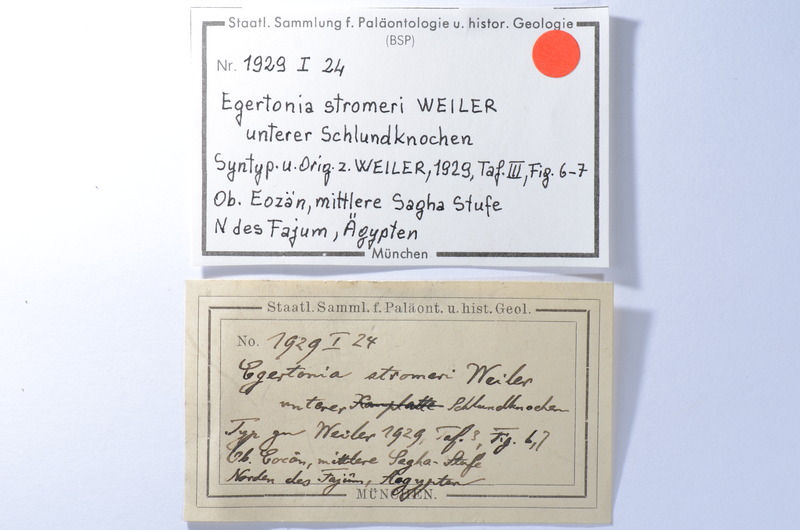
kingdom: Animalia
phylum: Chordata
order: Anguilliformes
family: Phyllodontidae
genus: Paralbula
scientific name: Paralbula Egertonia stromeri
